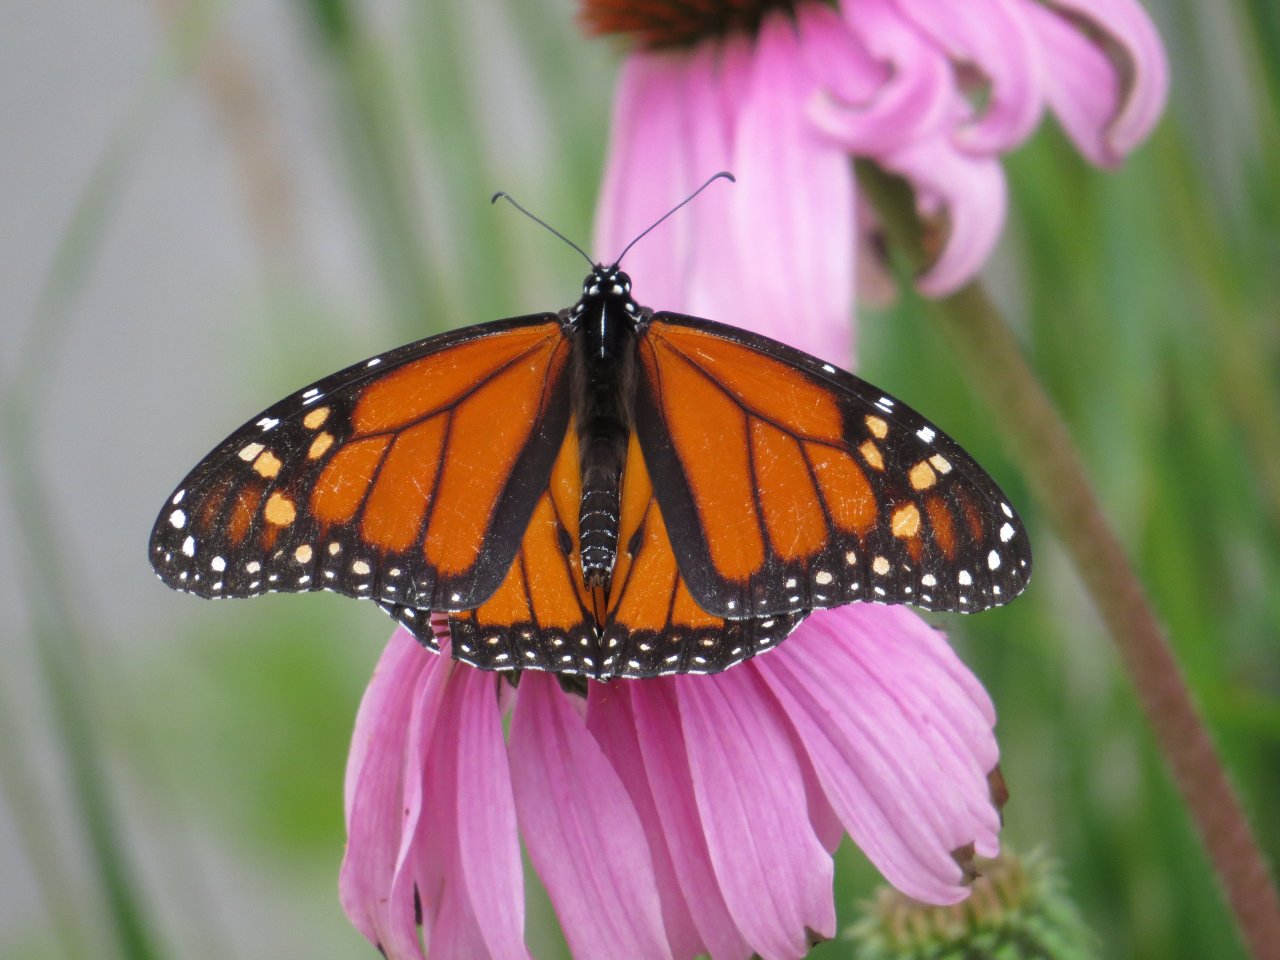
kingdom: Animalia
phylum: Arthropoda
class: Insecta
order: Lepidoptera
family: Nymphalidae
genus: Danaus
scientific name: Danaus plexippus
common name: Monarch
